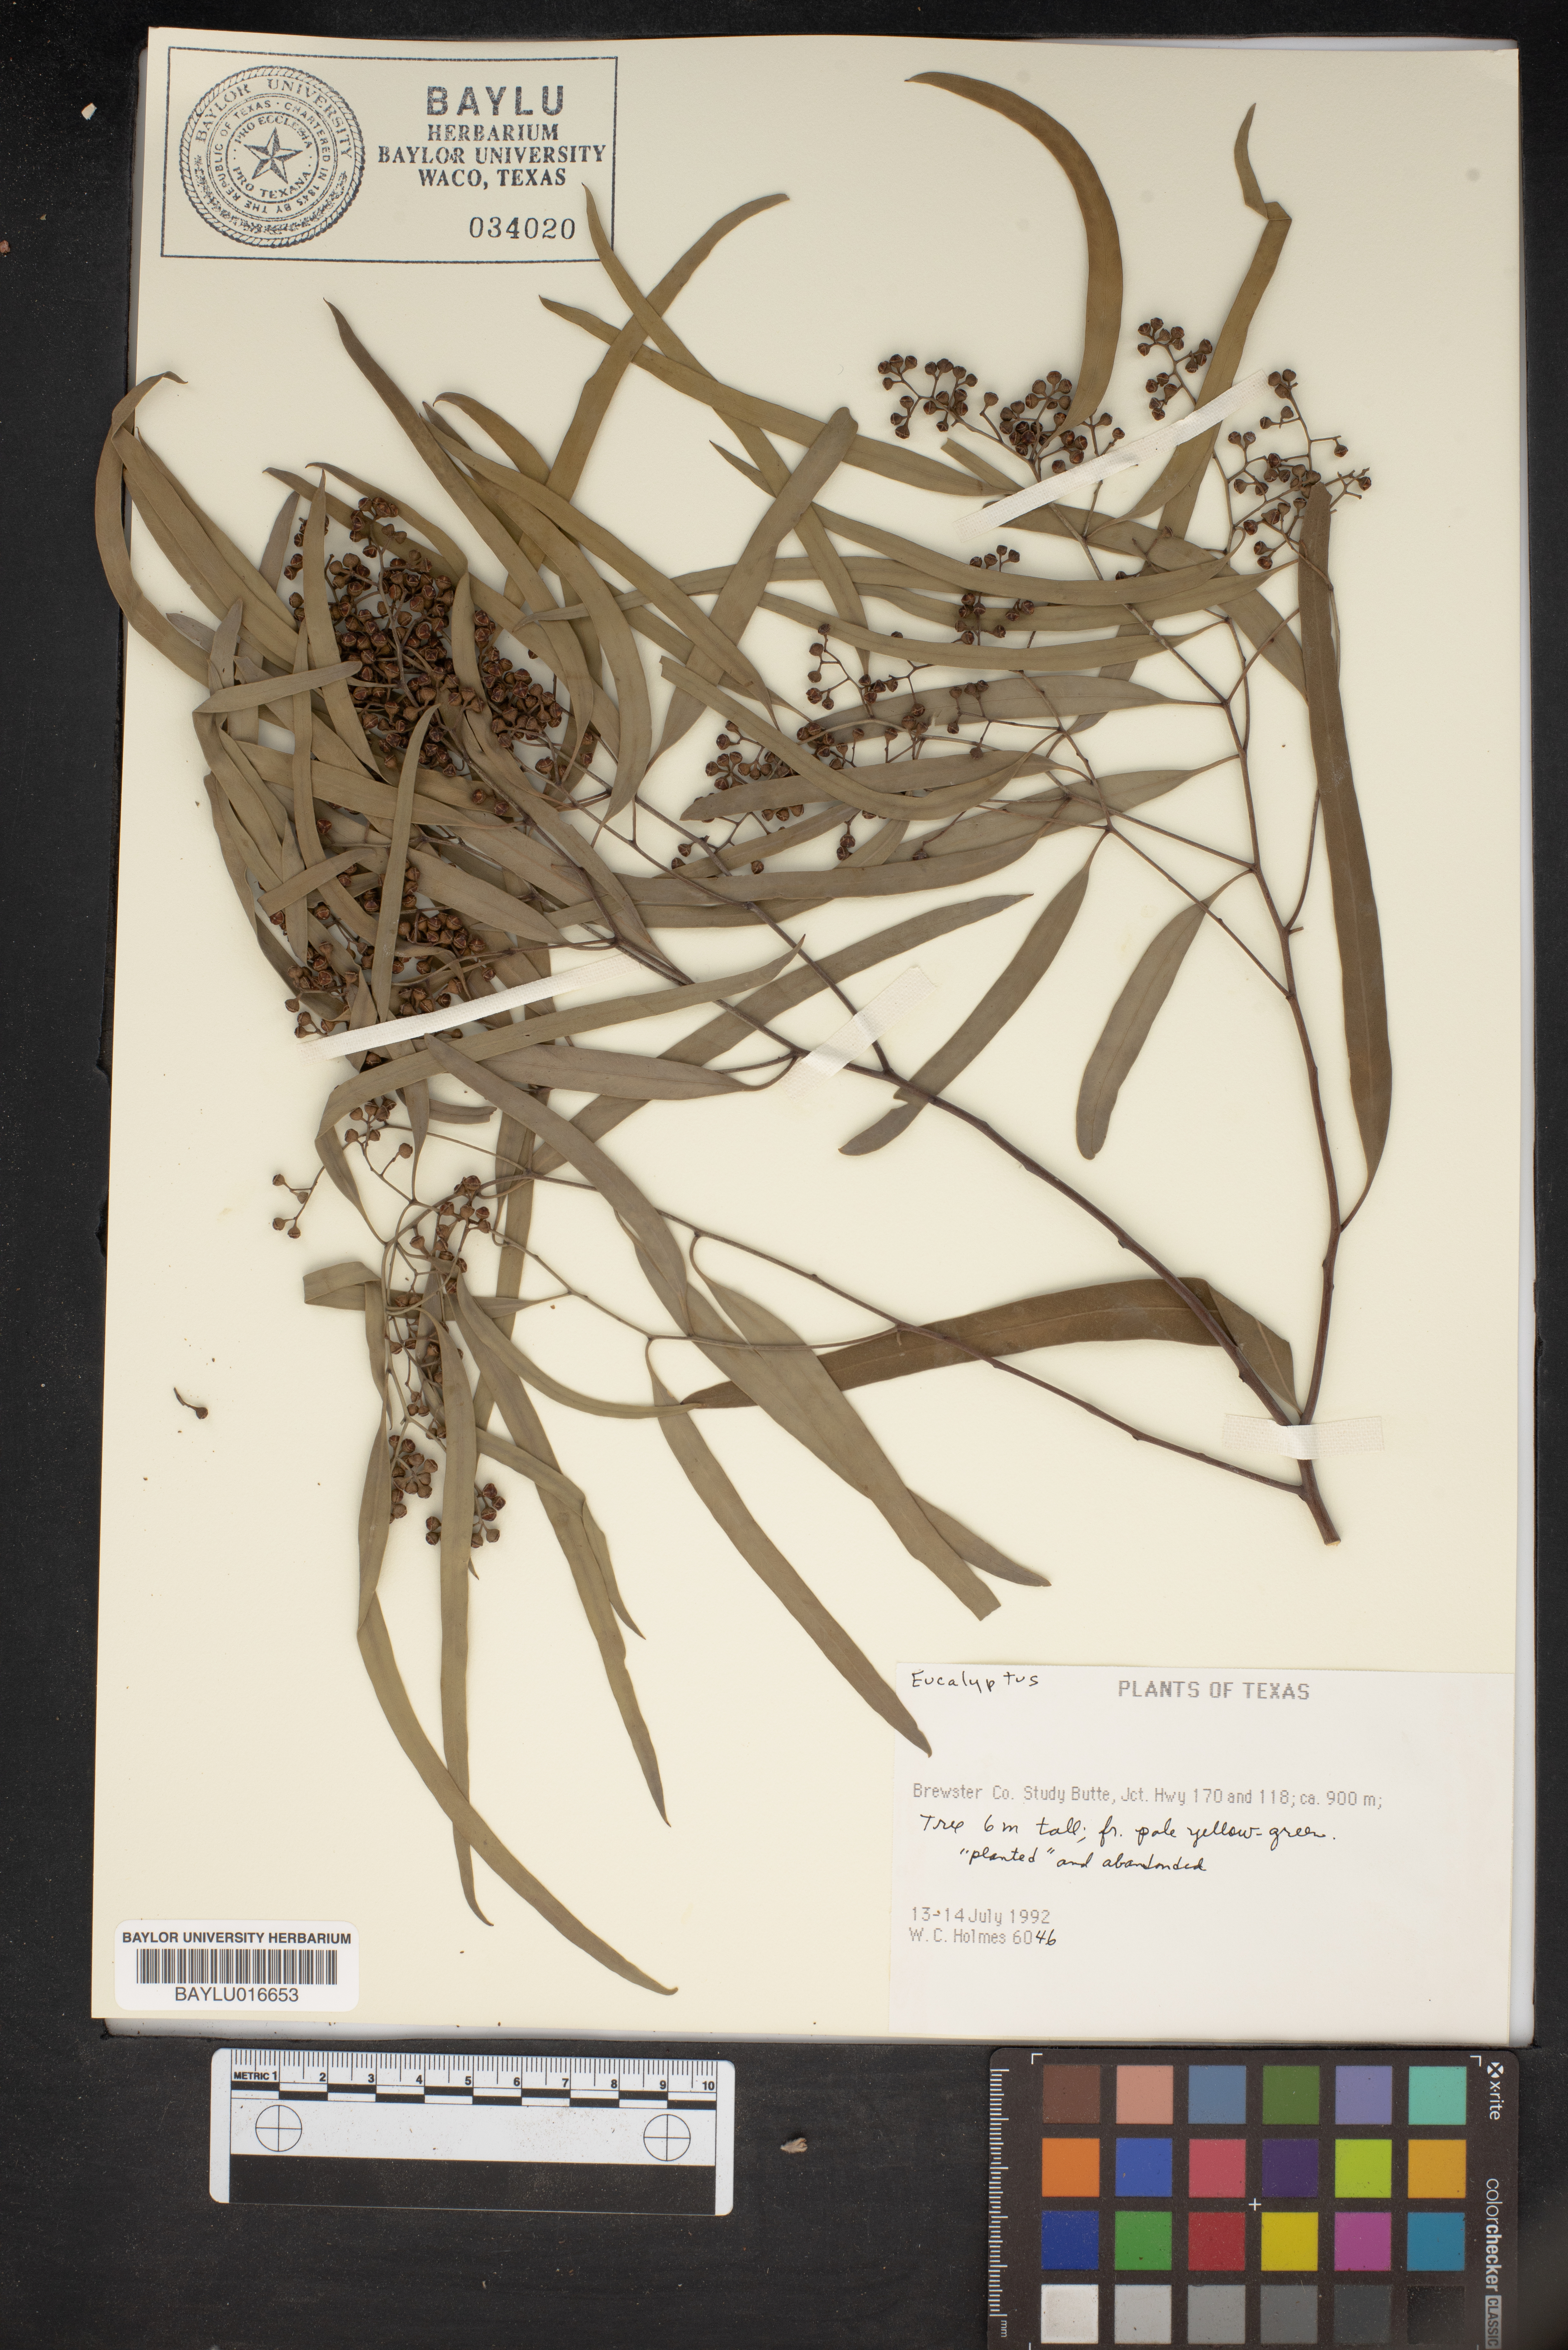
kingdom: Plantae
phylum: Tracheophyta
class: Magnoliopsida
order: Myrtales
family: Myrtaceae
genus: Eucalyptus
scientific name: Eucalyptus
